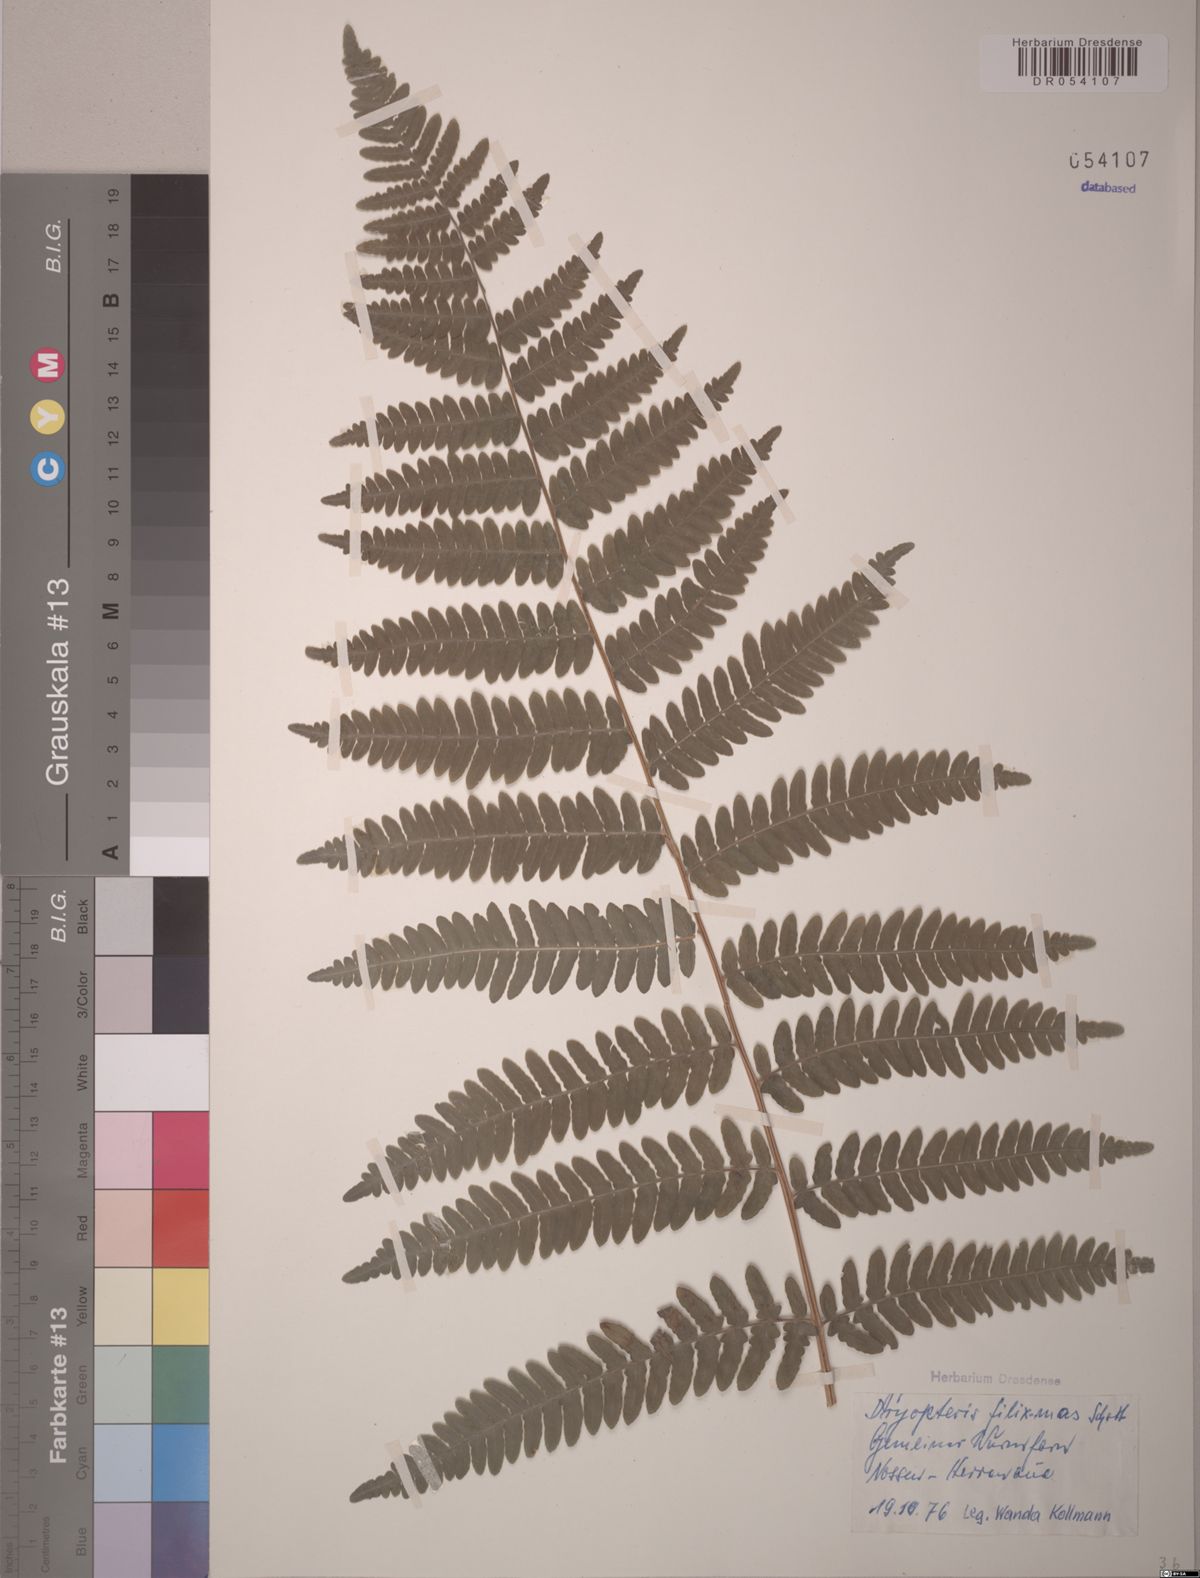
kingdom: Plantae
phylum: Tracheophyta
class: Polypodiopsida
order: Polypodiales
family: Dryopteridaceae
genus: Dryopteris
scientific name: Dryopteris filix-mas
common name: Male fern
